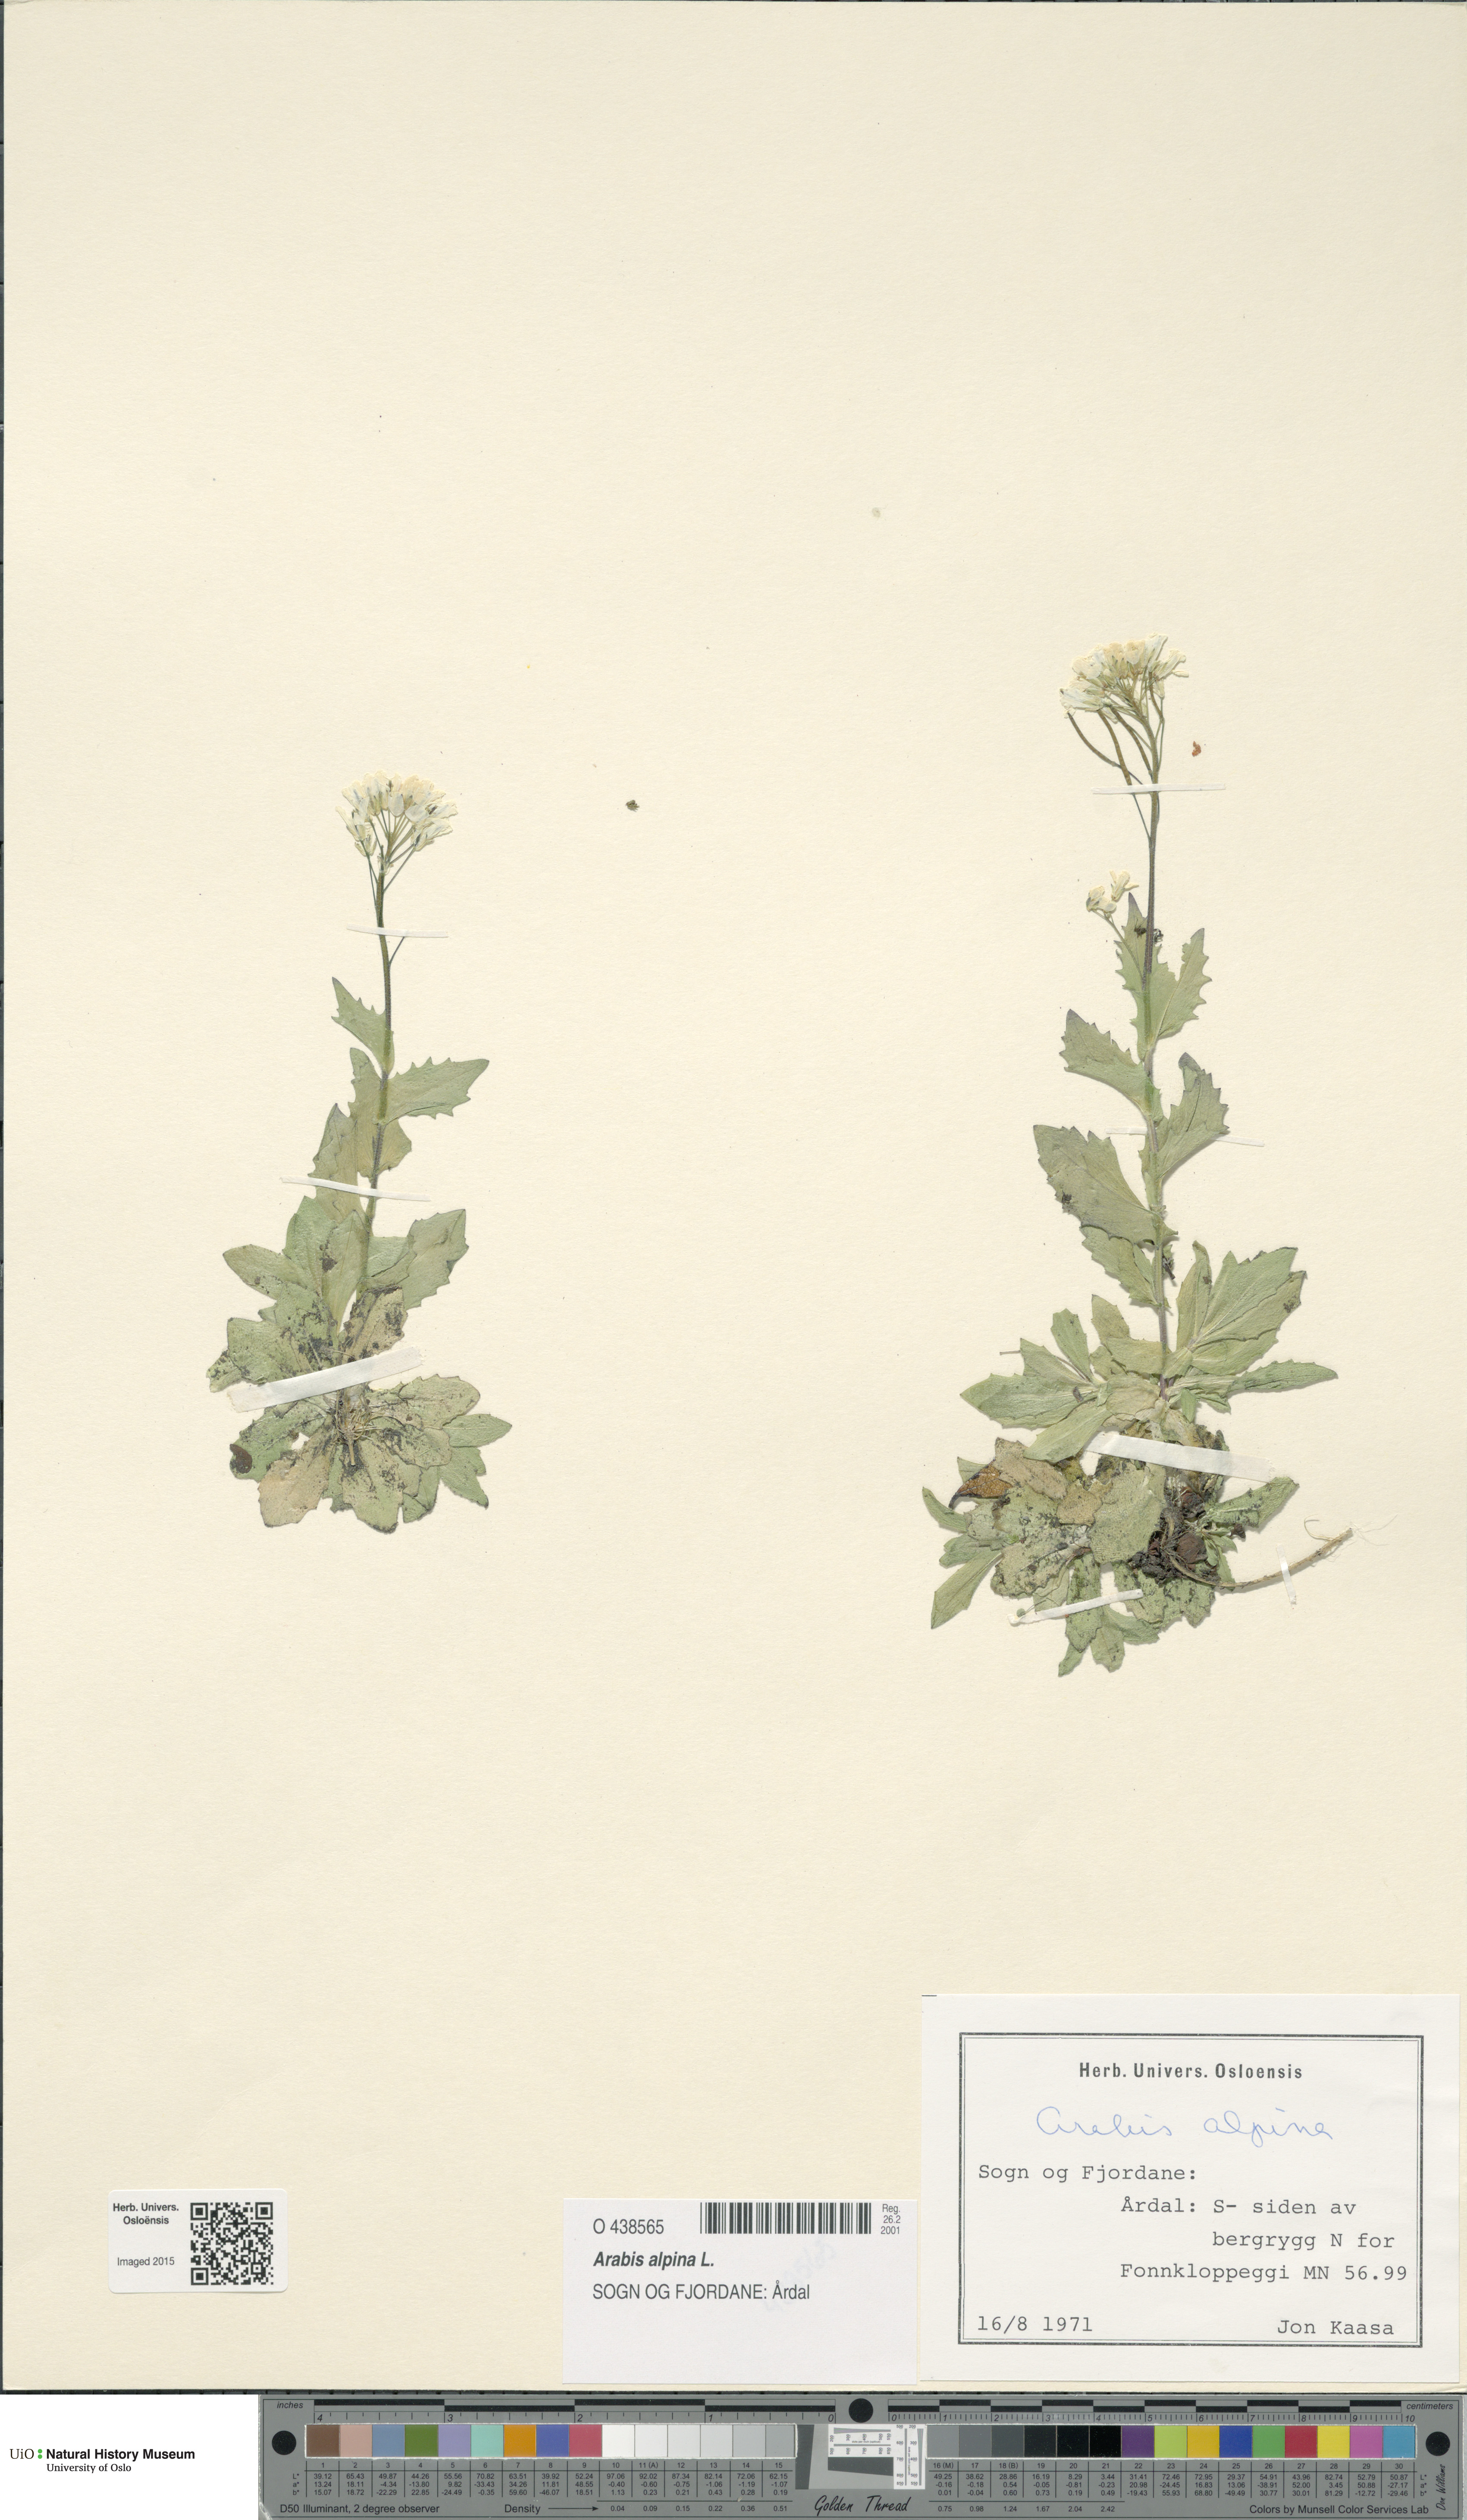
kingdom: Plantae
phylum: Tracheophyta
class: Magnoliopsida
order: Brassicales
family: Brassicaceae
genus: Arabis
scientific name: Arabis alpina
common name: Alpine rock-cress
